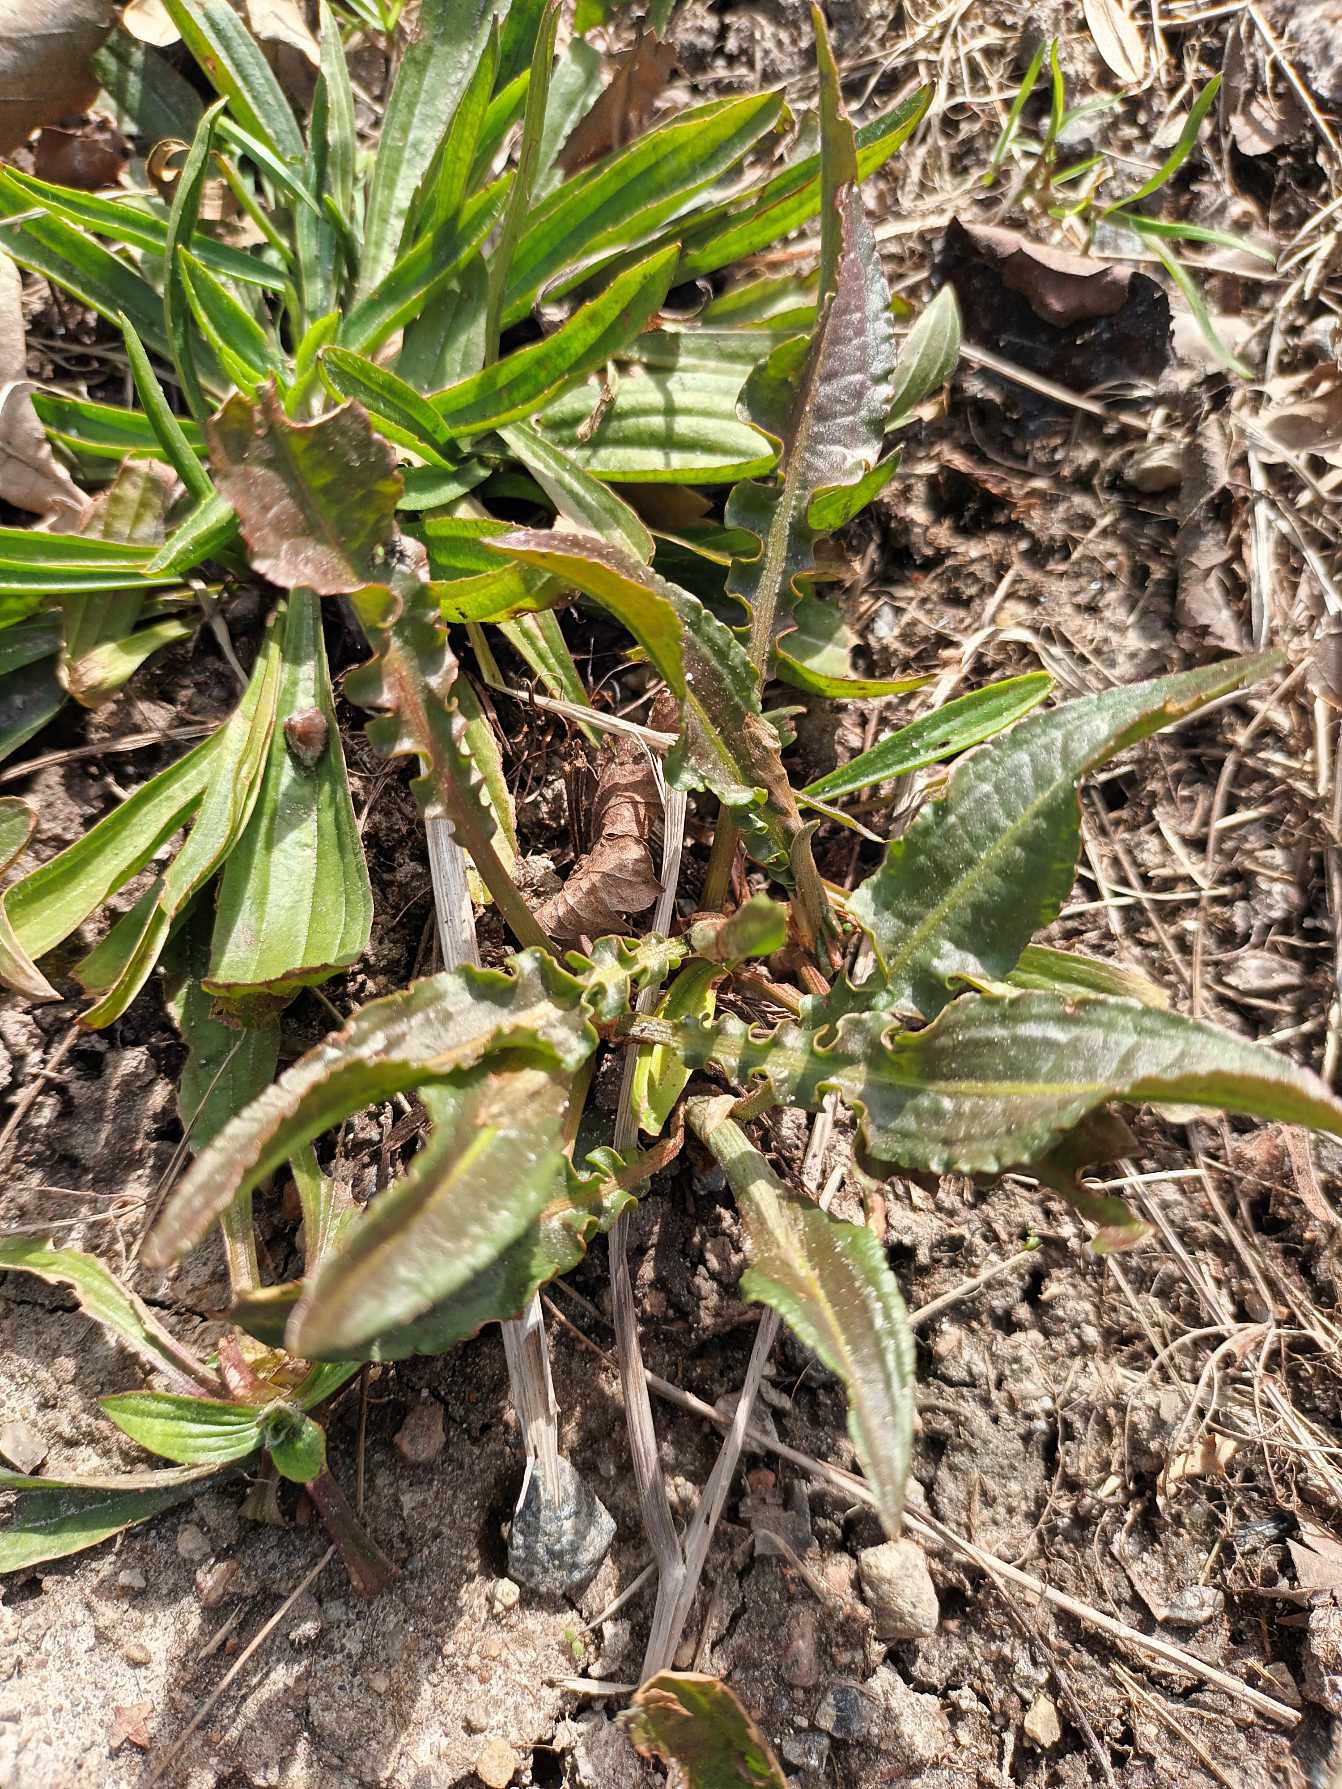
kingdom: Plantae
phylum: Tracheophyta
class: Magnoliopsida
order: Caryophyllales
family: Polygonaceae
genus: Rumex
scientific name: Rumex crispus
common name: Kruset skræppe
